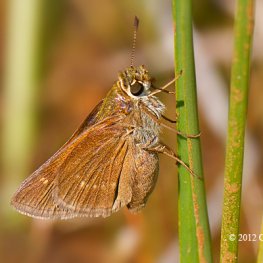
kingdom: Animalia
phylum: Arthropoda
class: Insecta
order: Lepidoptera
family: Hesperiidae
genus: Polites
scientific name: Polites
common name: Crossline Skipper
